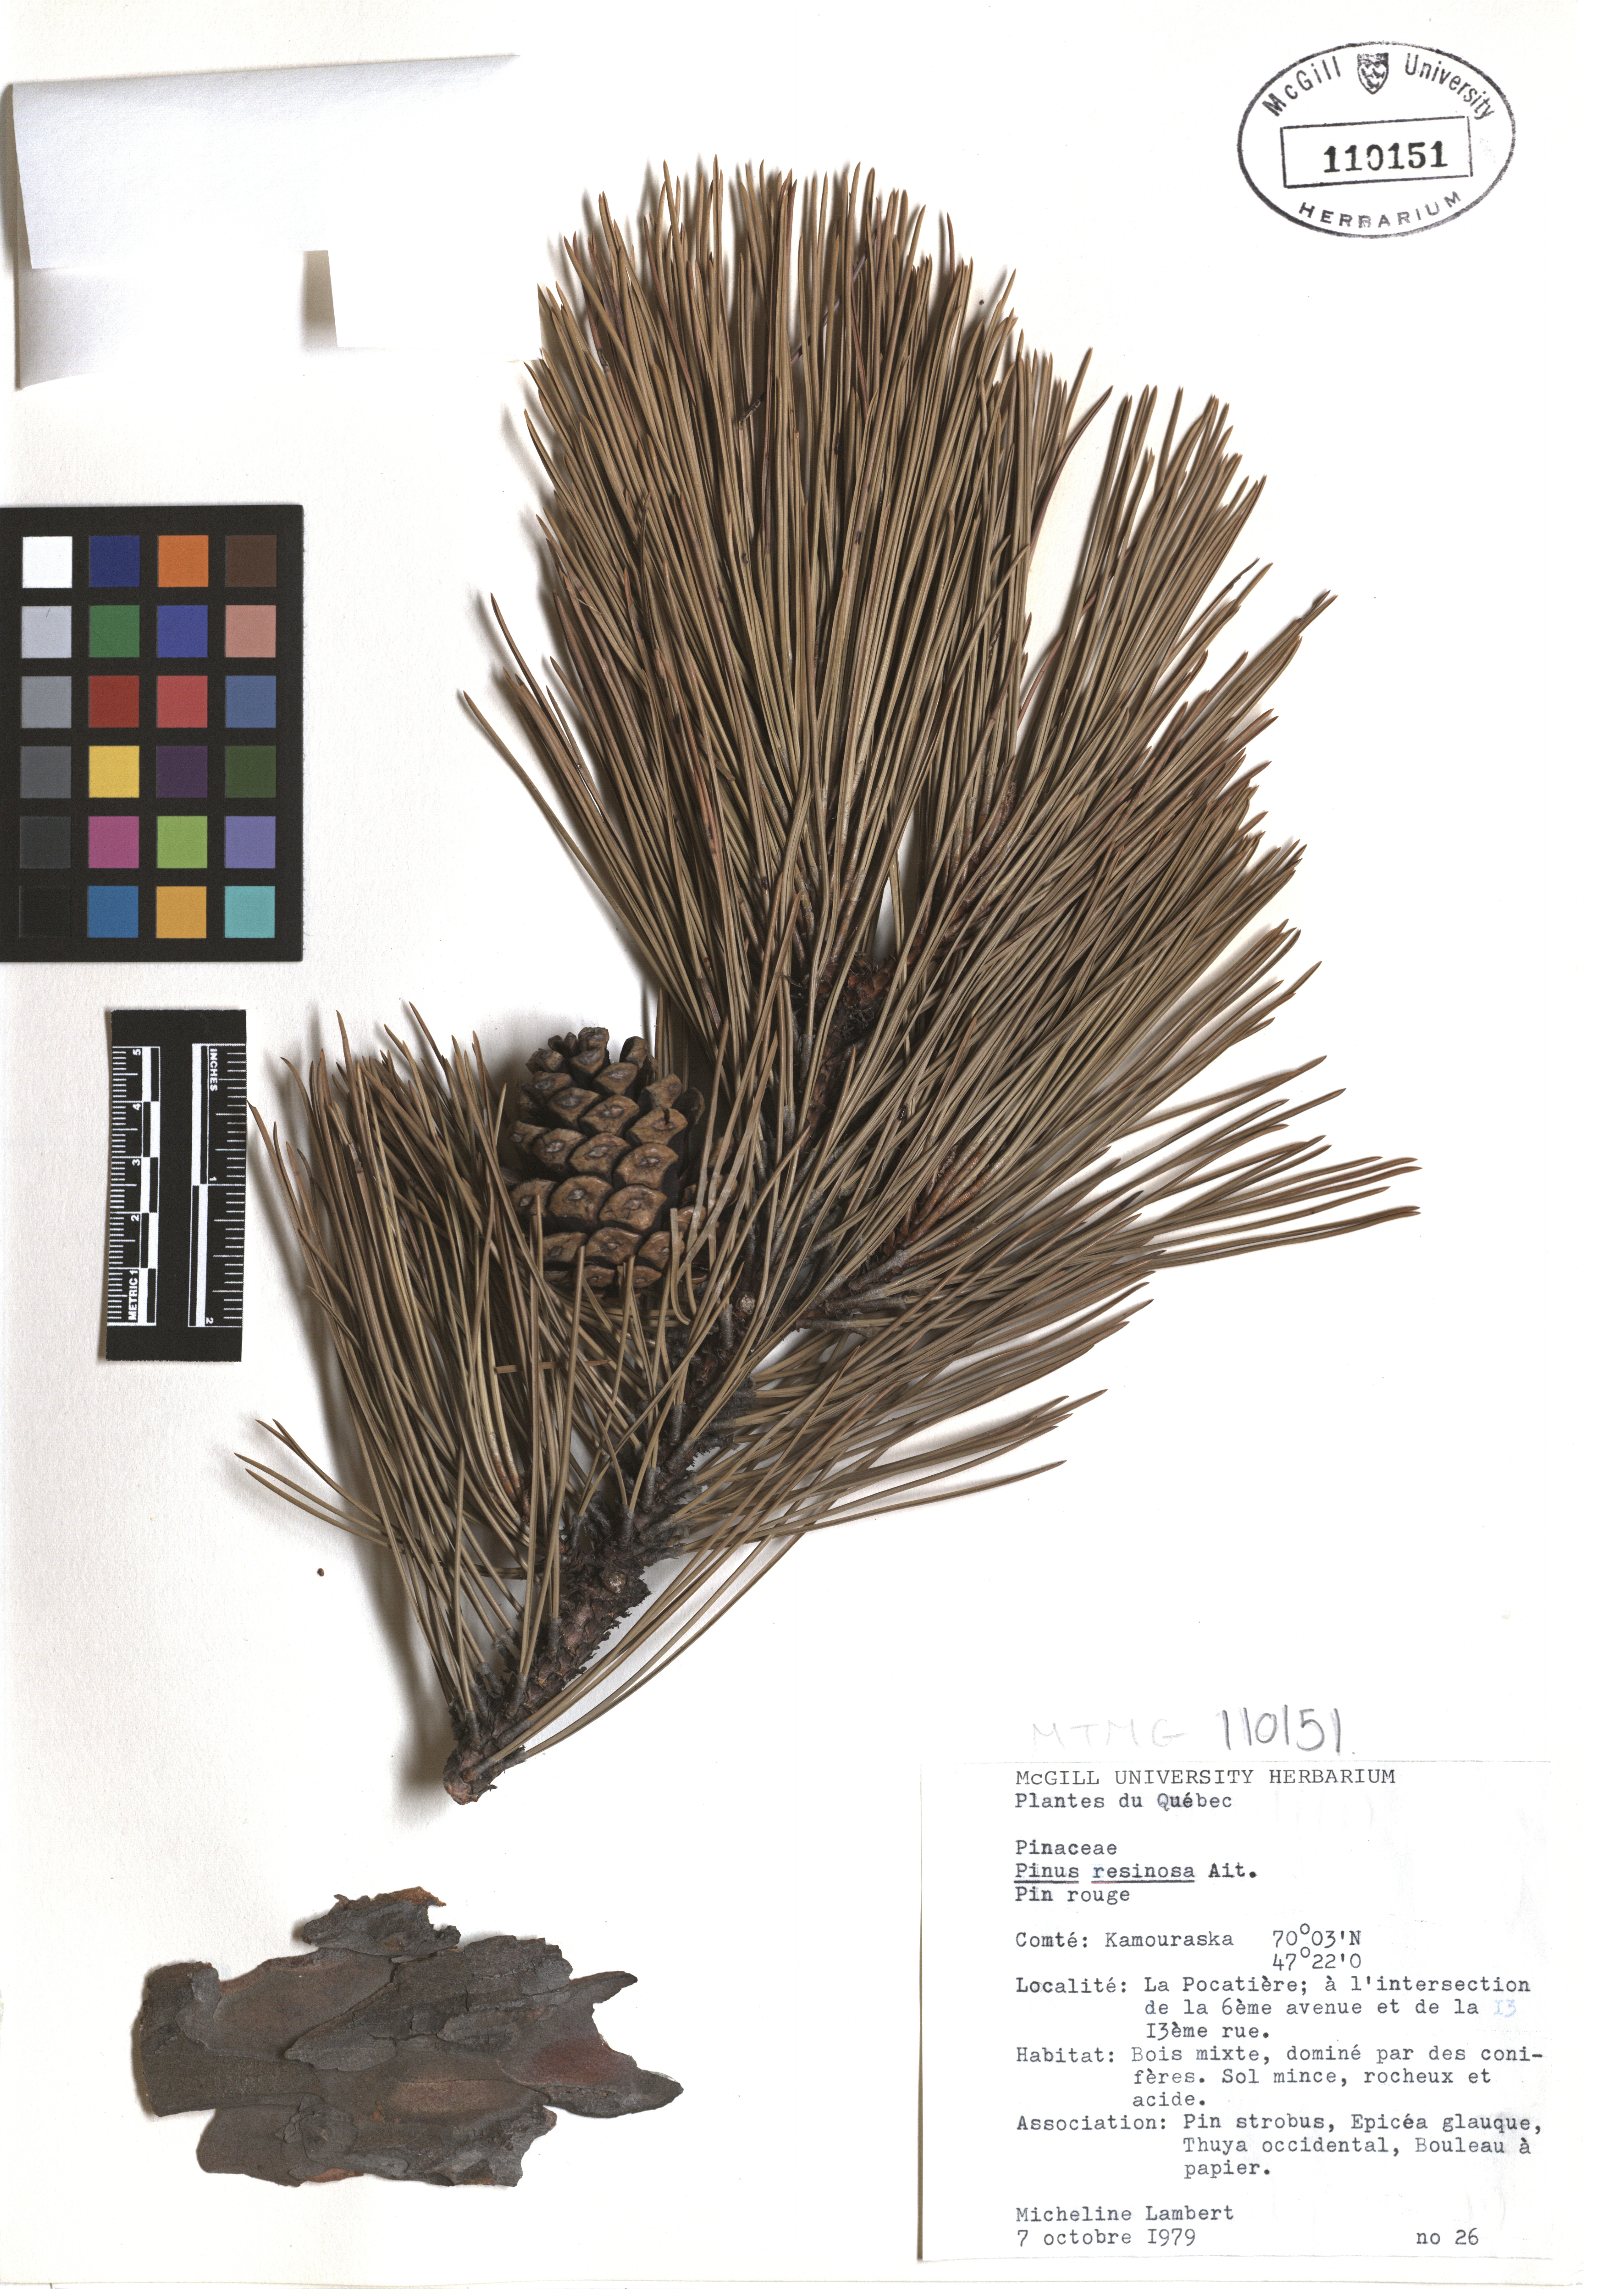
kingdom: Plantae
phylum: Tracheophyta
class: Pinopsida
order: Pinales
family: Pinaceae
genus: Pinus
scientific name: Pinus hartwegii
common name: Hartweg's pine
